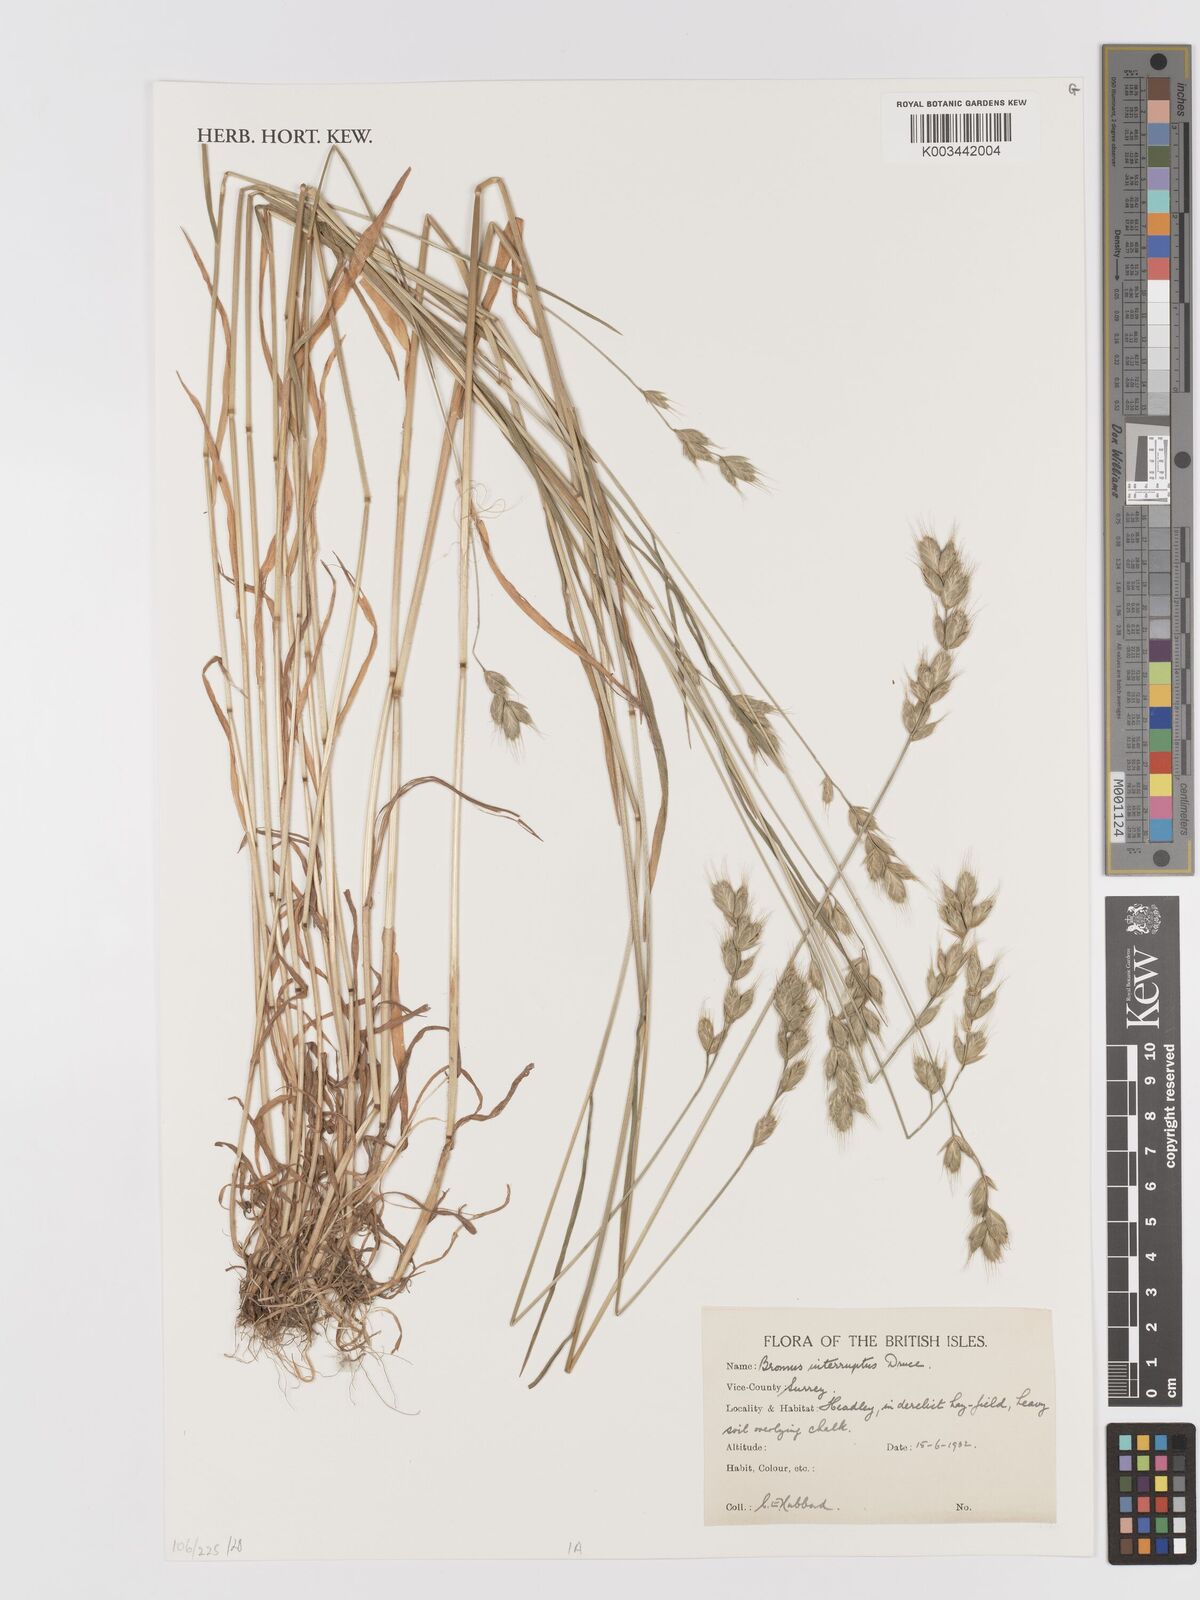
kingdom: Plantae
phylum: Tracheophyta
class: Liliopsida
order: Poales
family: Poaceae
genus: Bromus
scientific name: Bromus interruptus
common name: Interrupted brome
